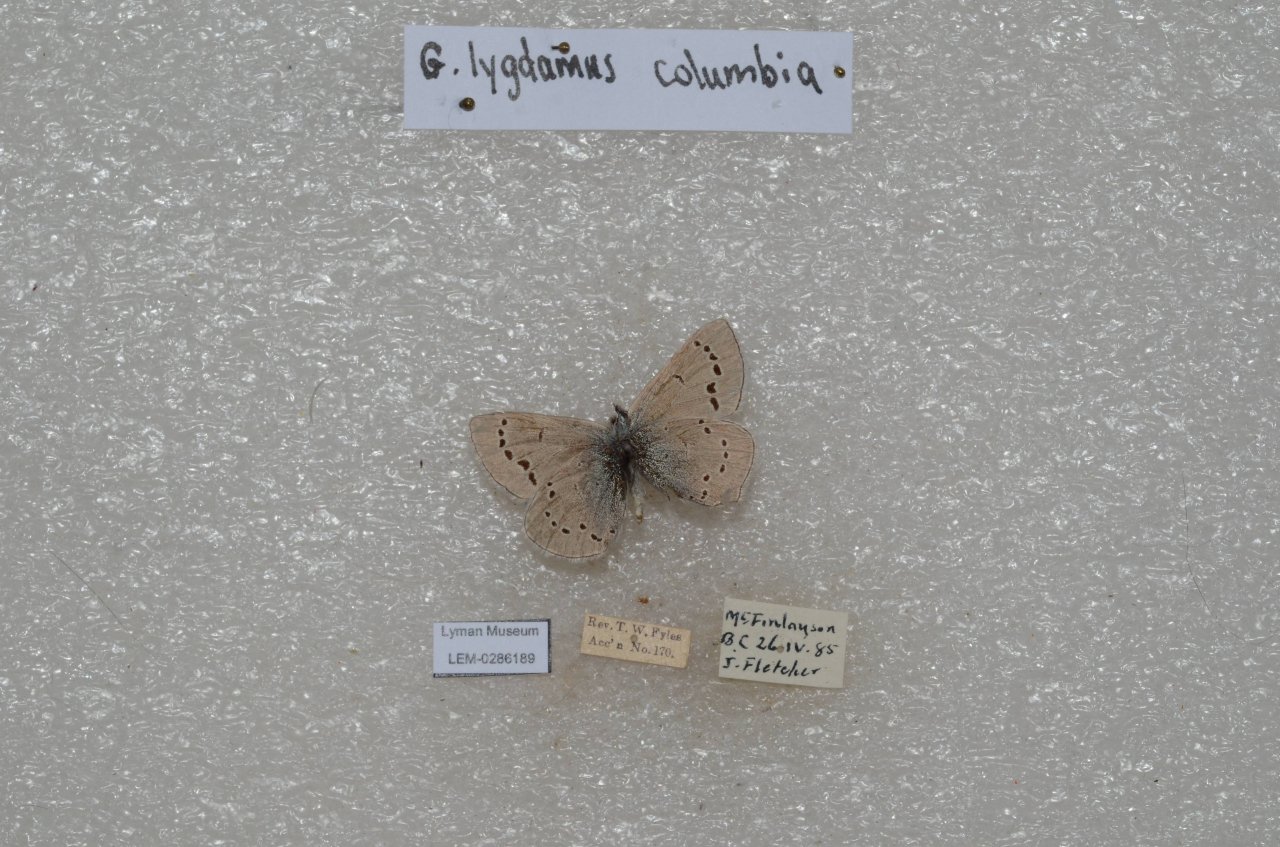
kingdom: Animalia
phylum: Arthropoda
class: Insecta
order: Lepidoptera
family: Lycaenidae
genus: Glaucopsyche
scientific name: Glaucopsyche lygdamus
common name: Silvery Blue
